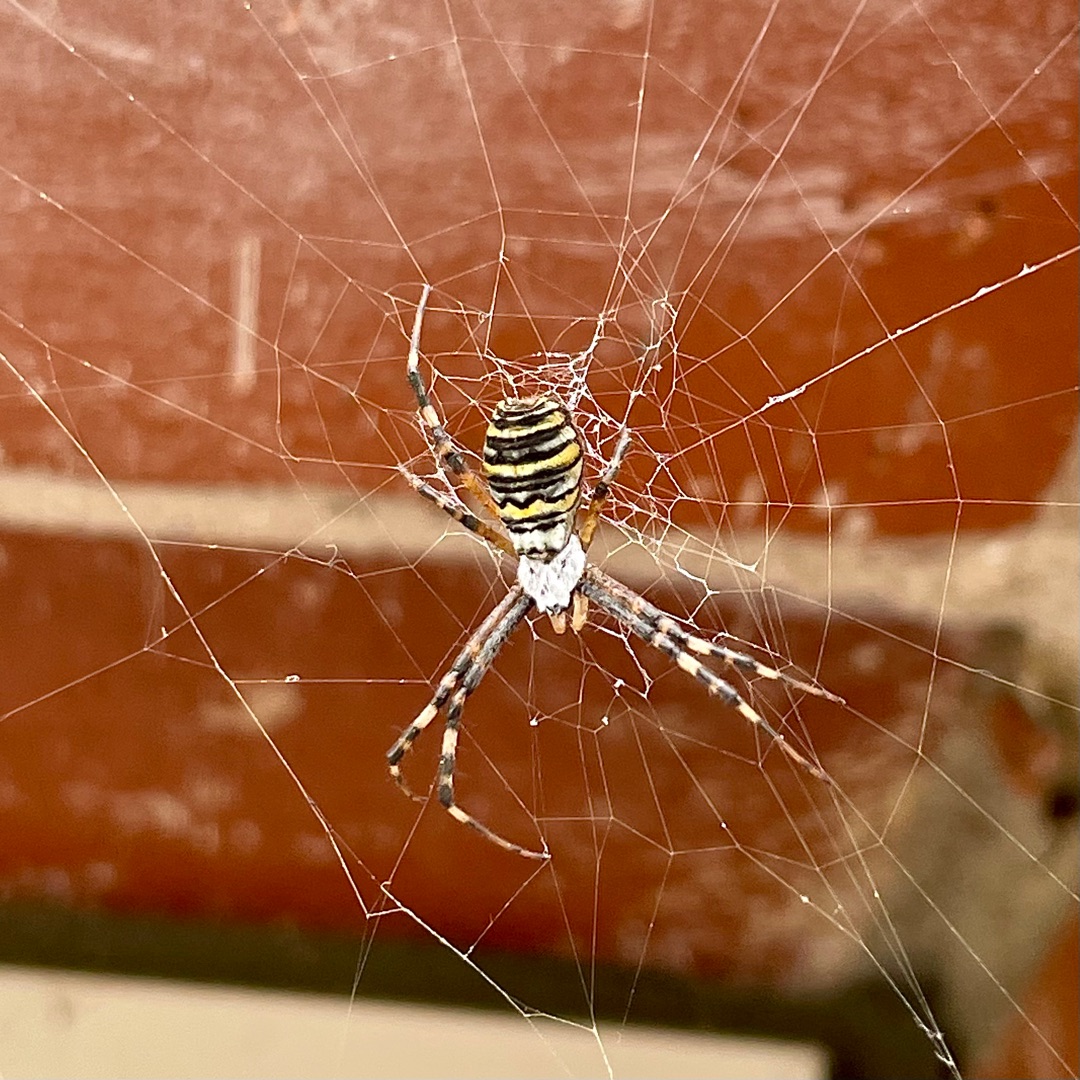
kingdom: Animalia
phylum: Arthropoda
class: Arachnida
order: Araneae
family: Araneidae
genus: Argiope
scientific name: Argiope bruennichi
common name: Hvepseedderkop
